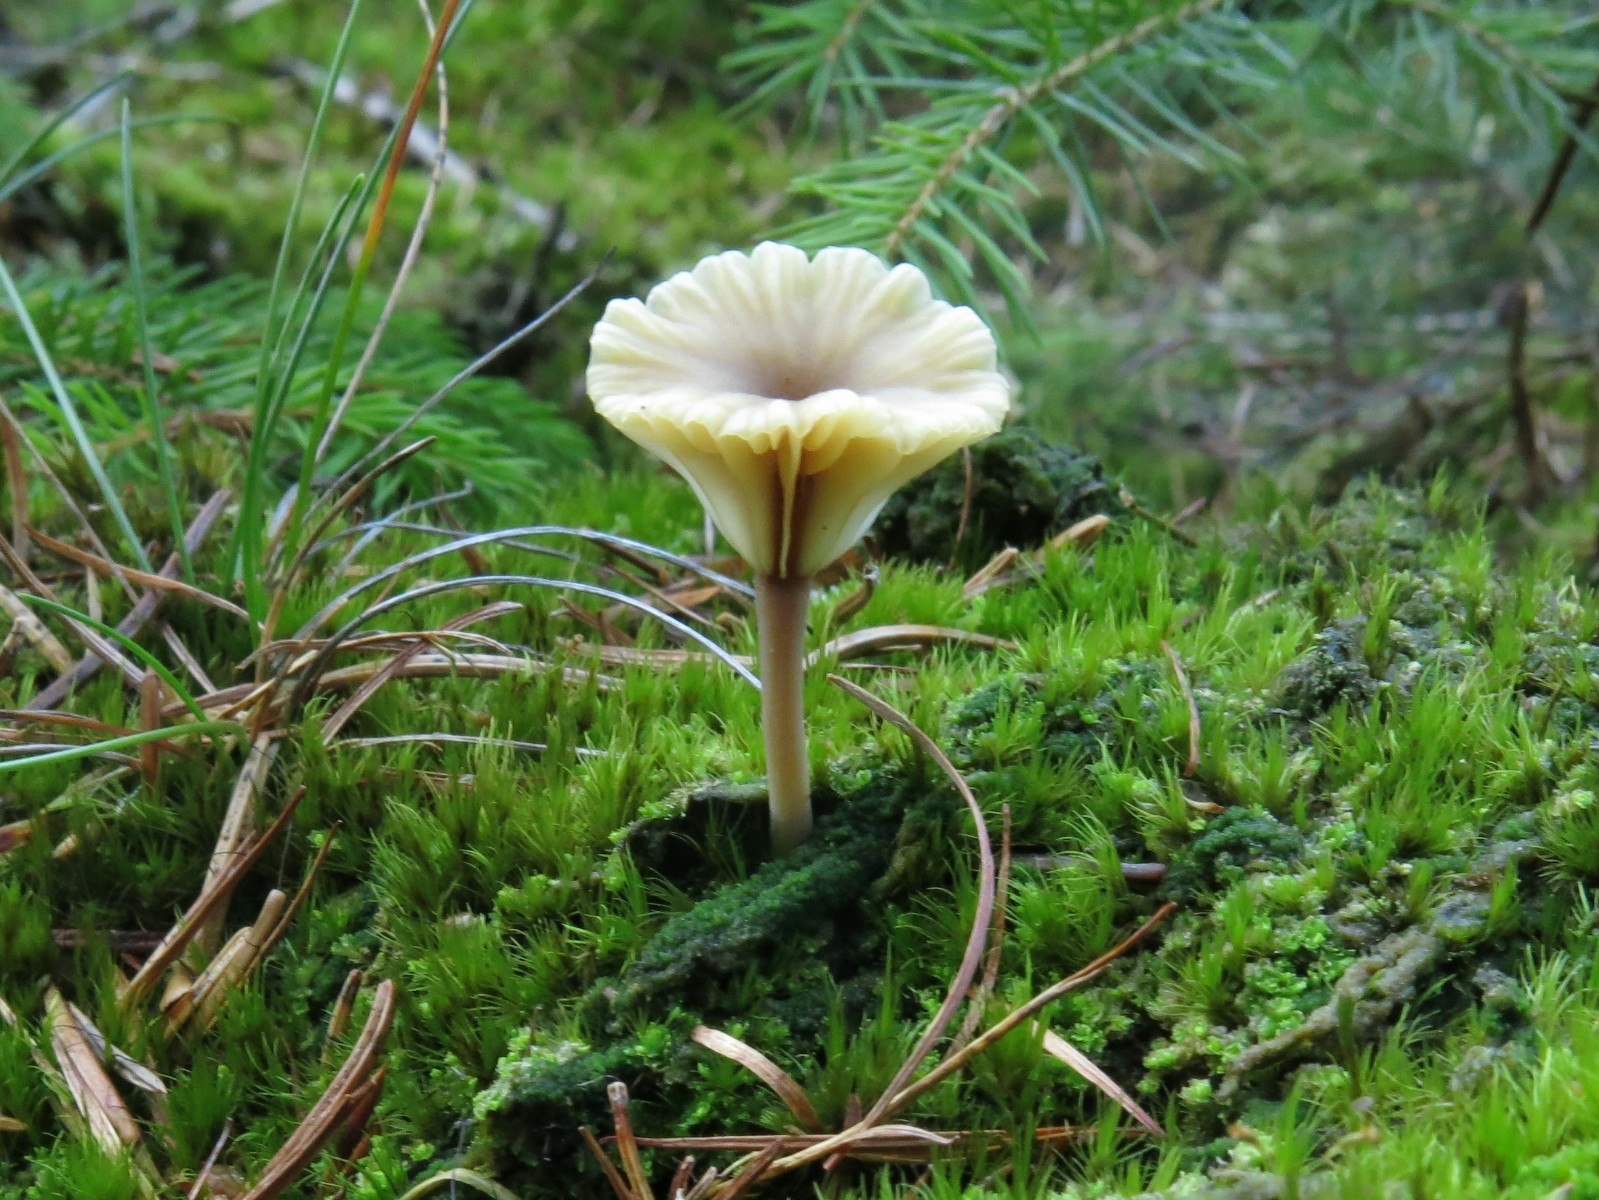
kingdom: Fungi
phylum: Basidiomycota
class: Agaricomycetes
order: Agaricales
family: Hygrophoraceae
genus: Lichenomphalia
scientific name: Lichenomphalia umbellifera
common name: tørve-lavhat
